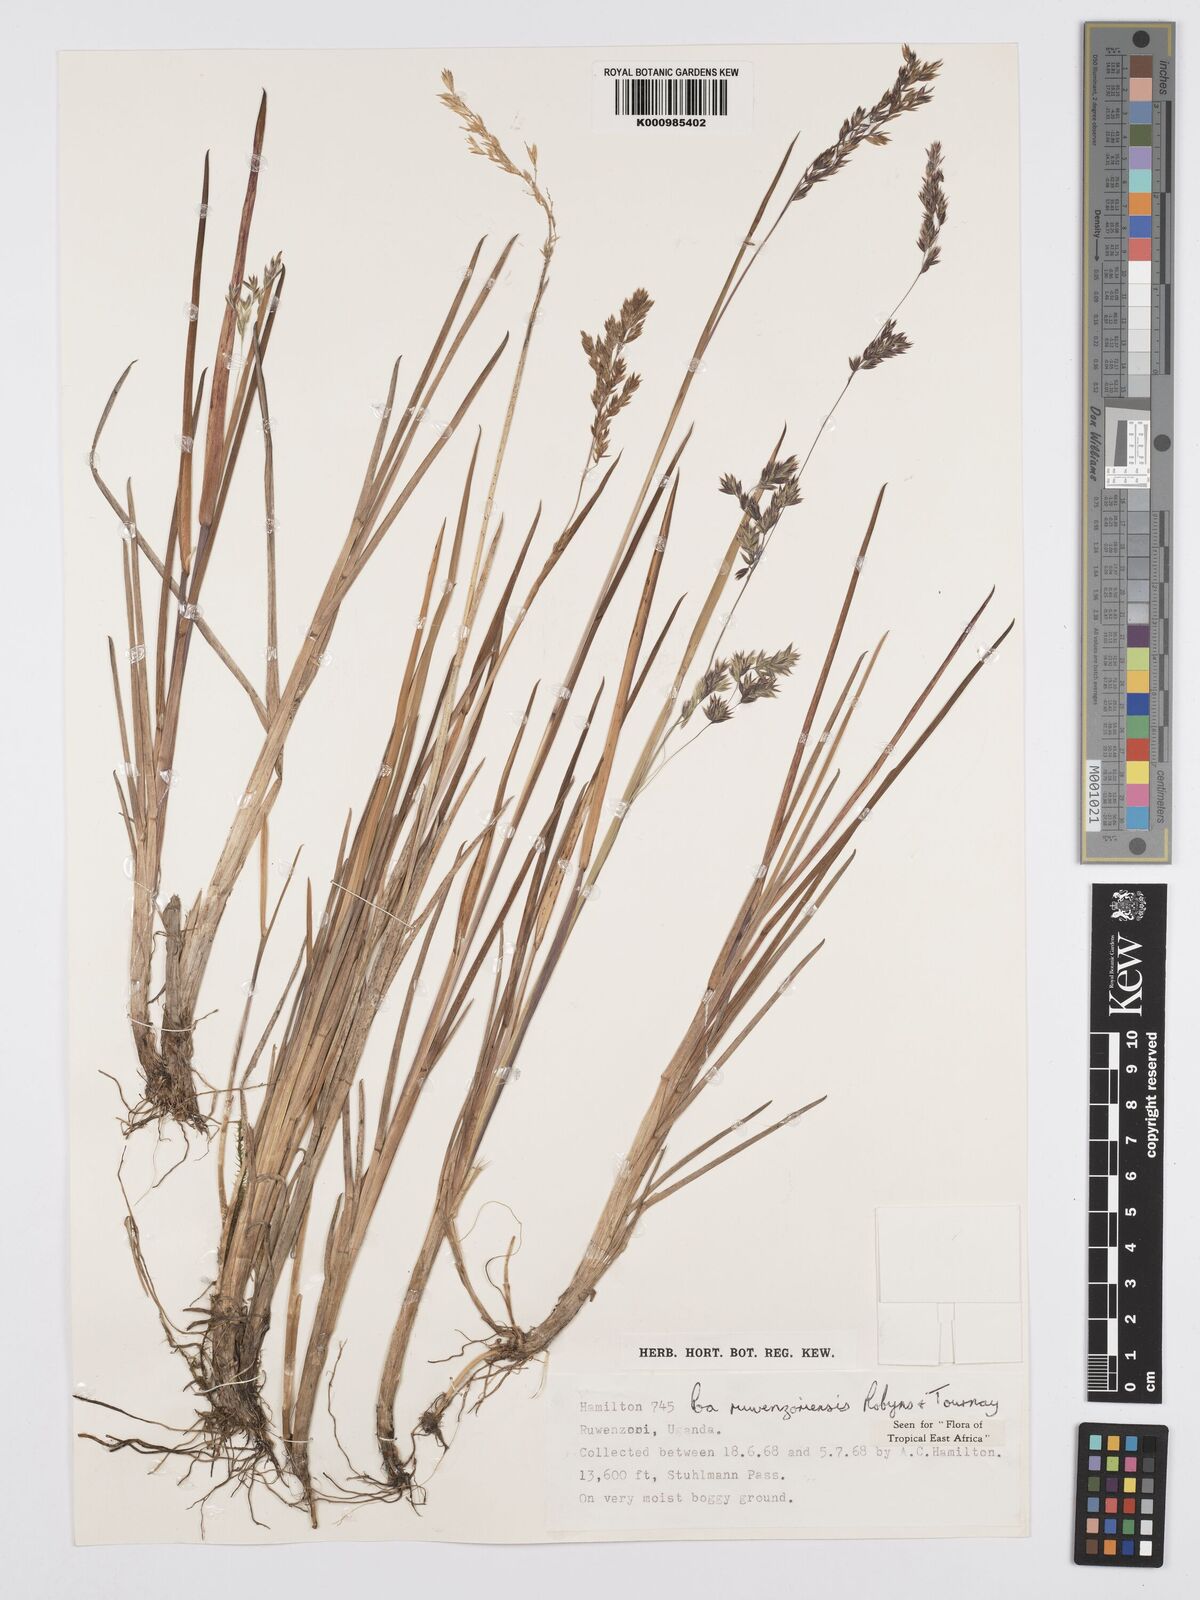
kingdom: Plantae
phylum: Tracheophyta
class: Liliopsida
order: Poales
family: Poaceae
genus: Poa
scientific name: Poa ruwenzoriensis
